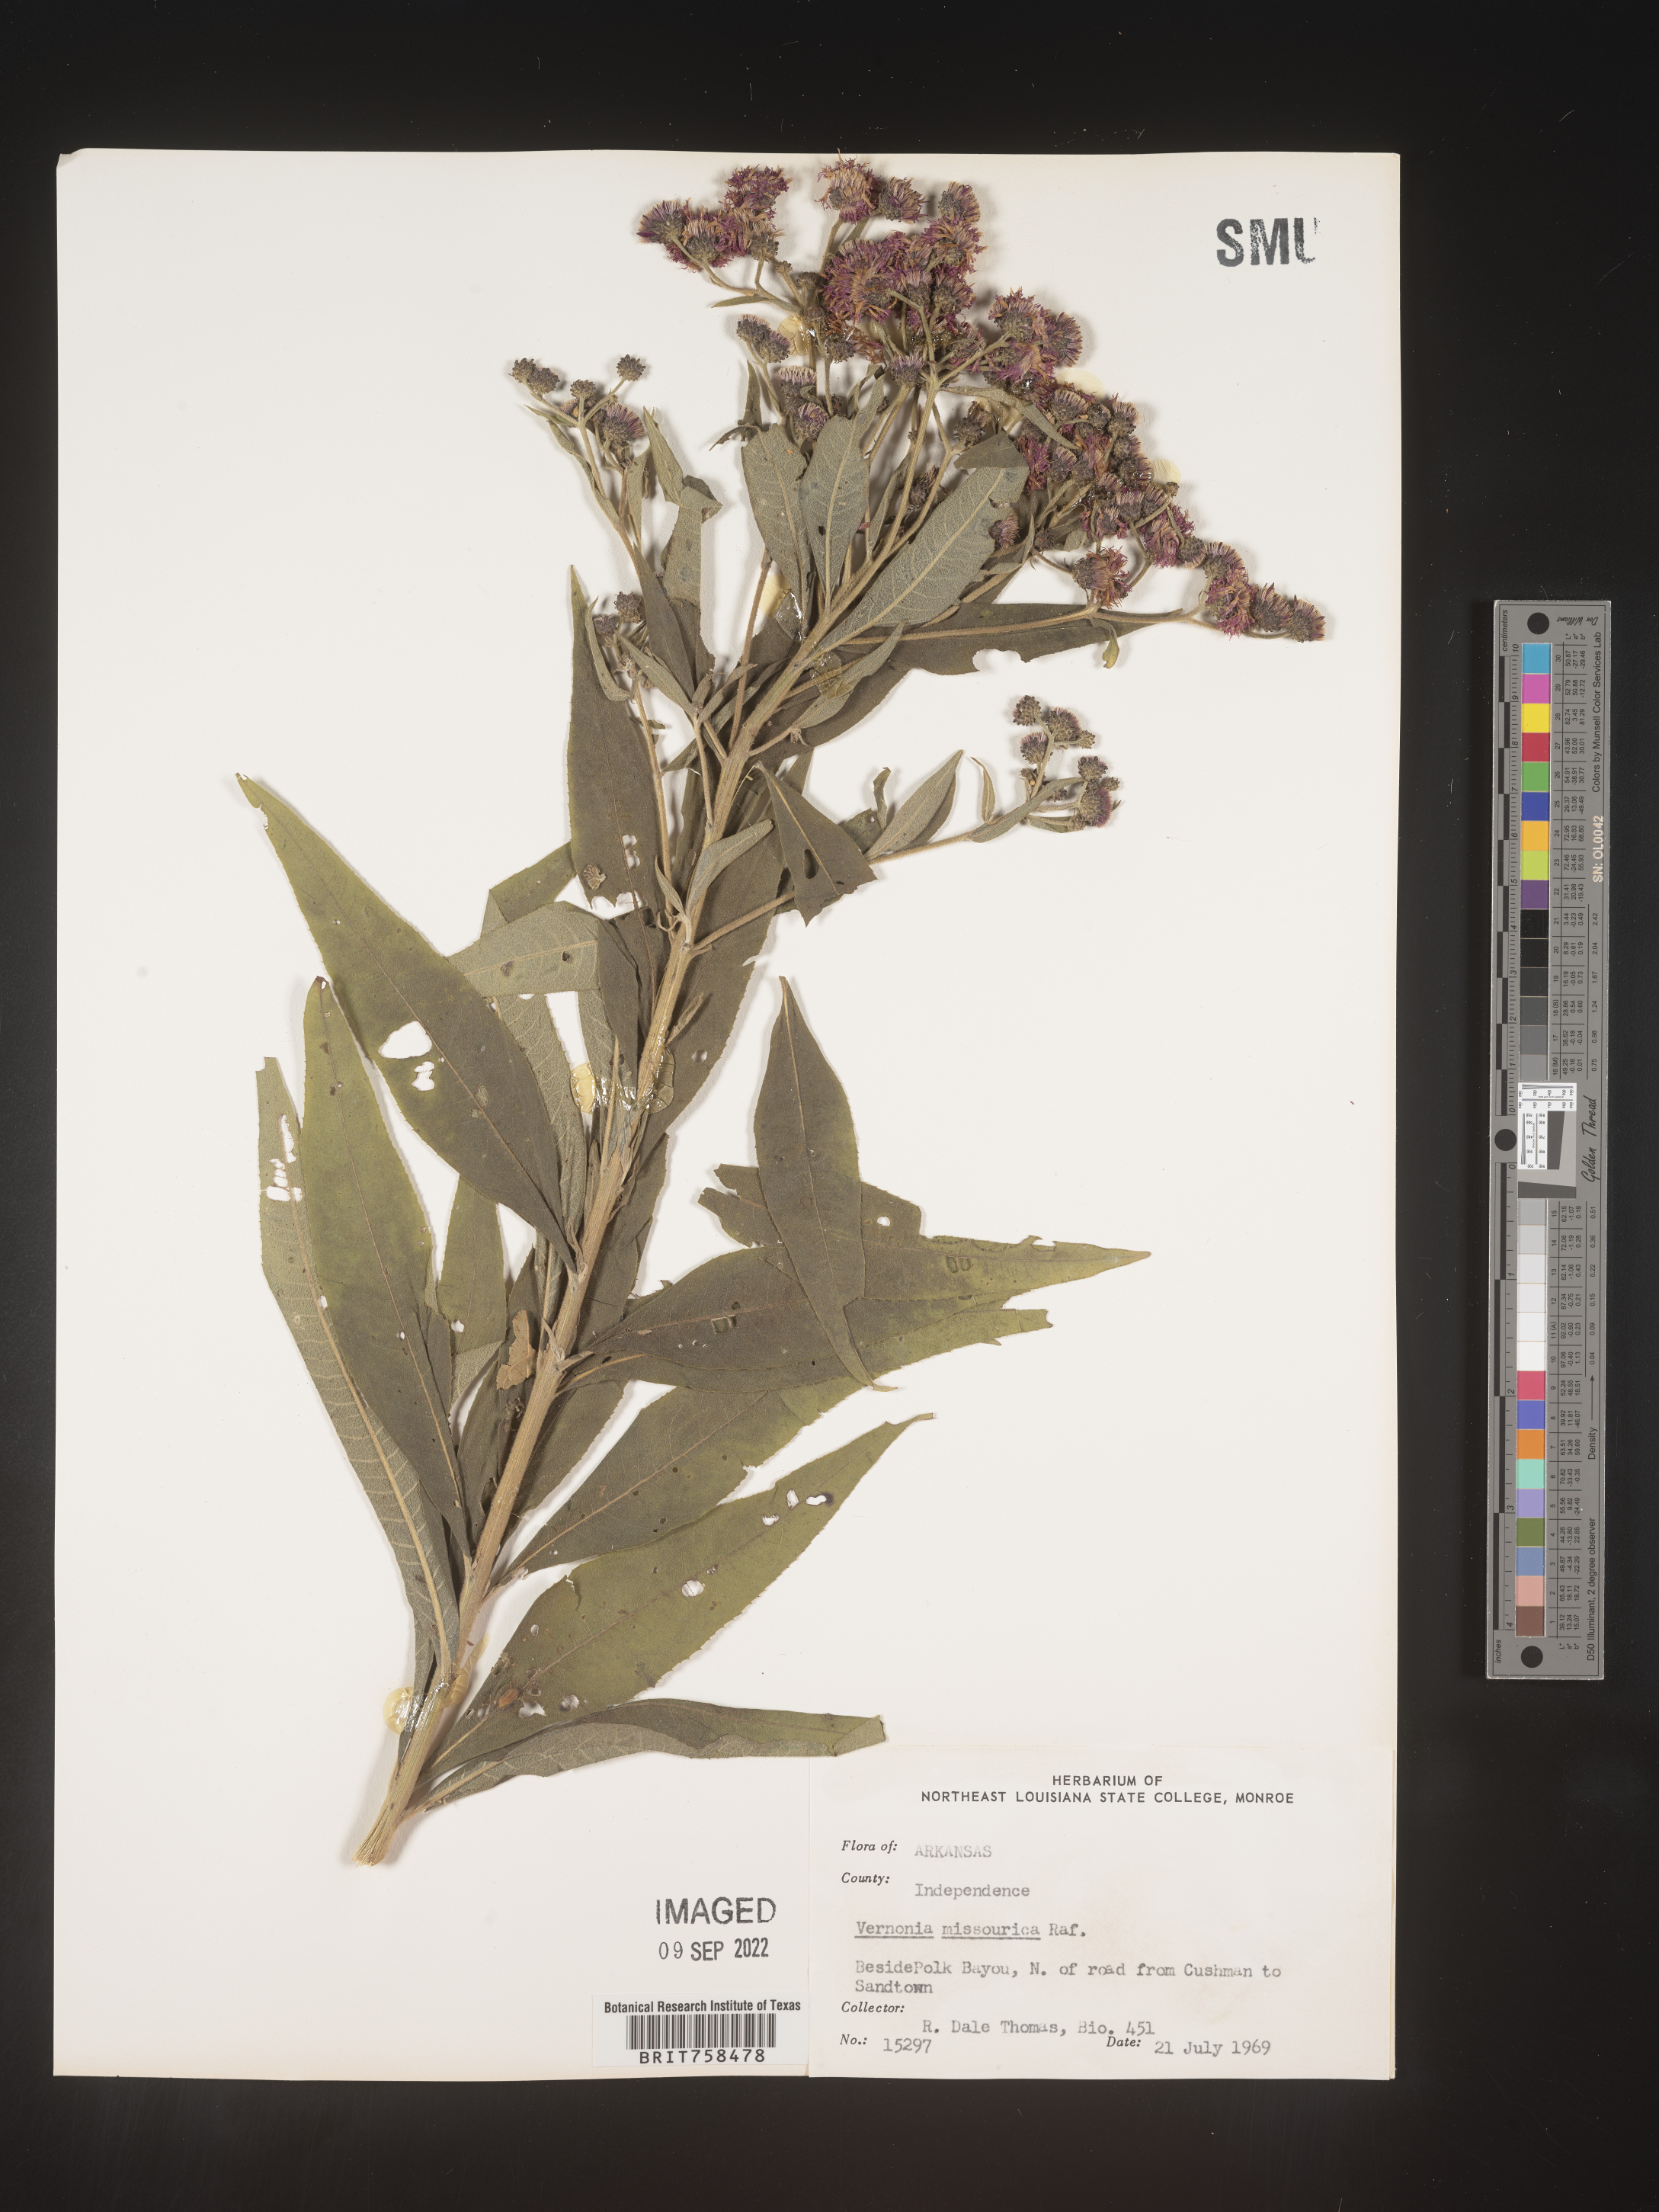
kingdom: Plantae
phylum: Tracheophyta
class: Magnoliopsida
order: Asterales
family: Asteraceae
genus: Vernonia
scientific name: Vernonia missurica
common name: Missouri ironweed
